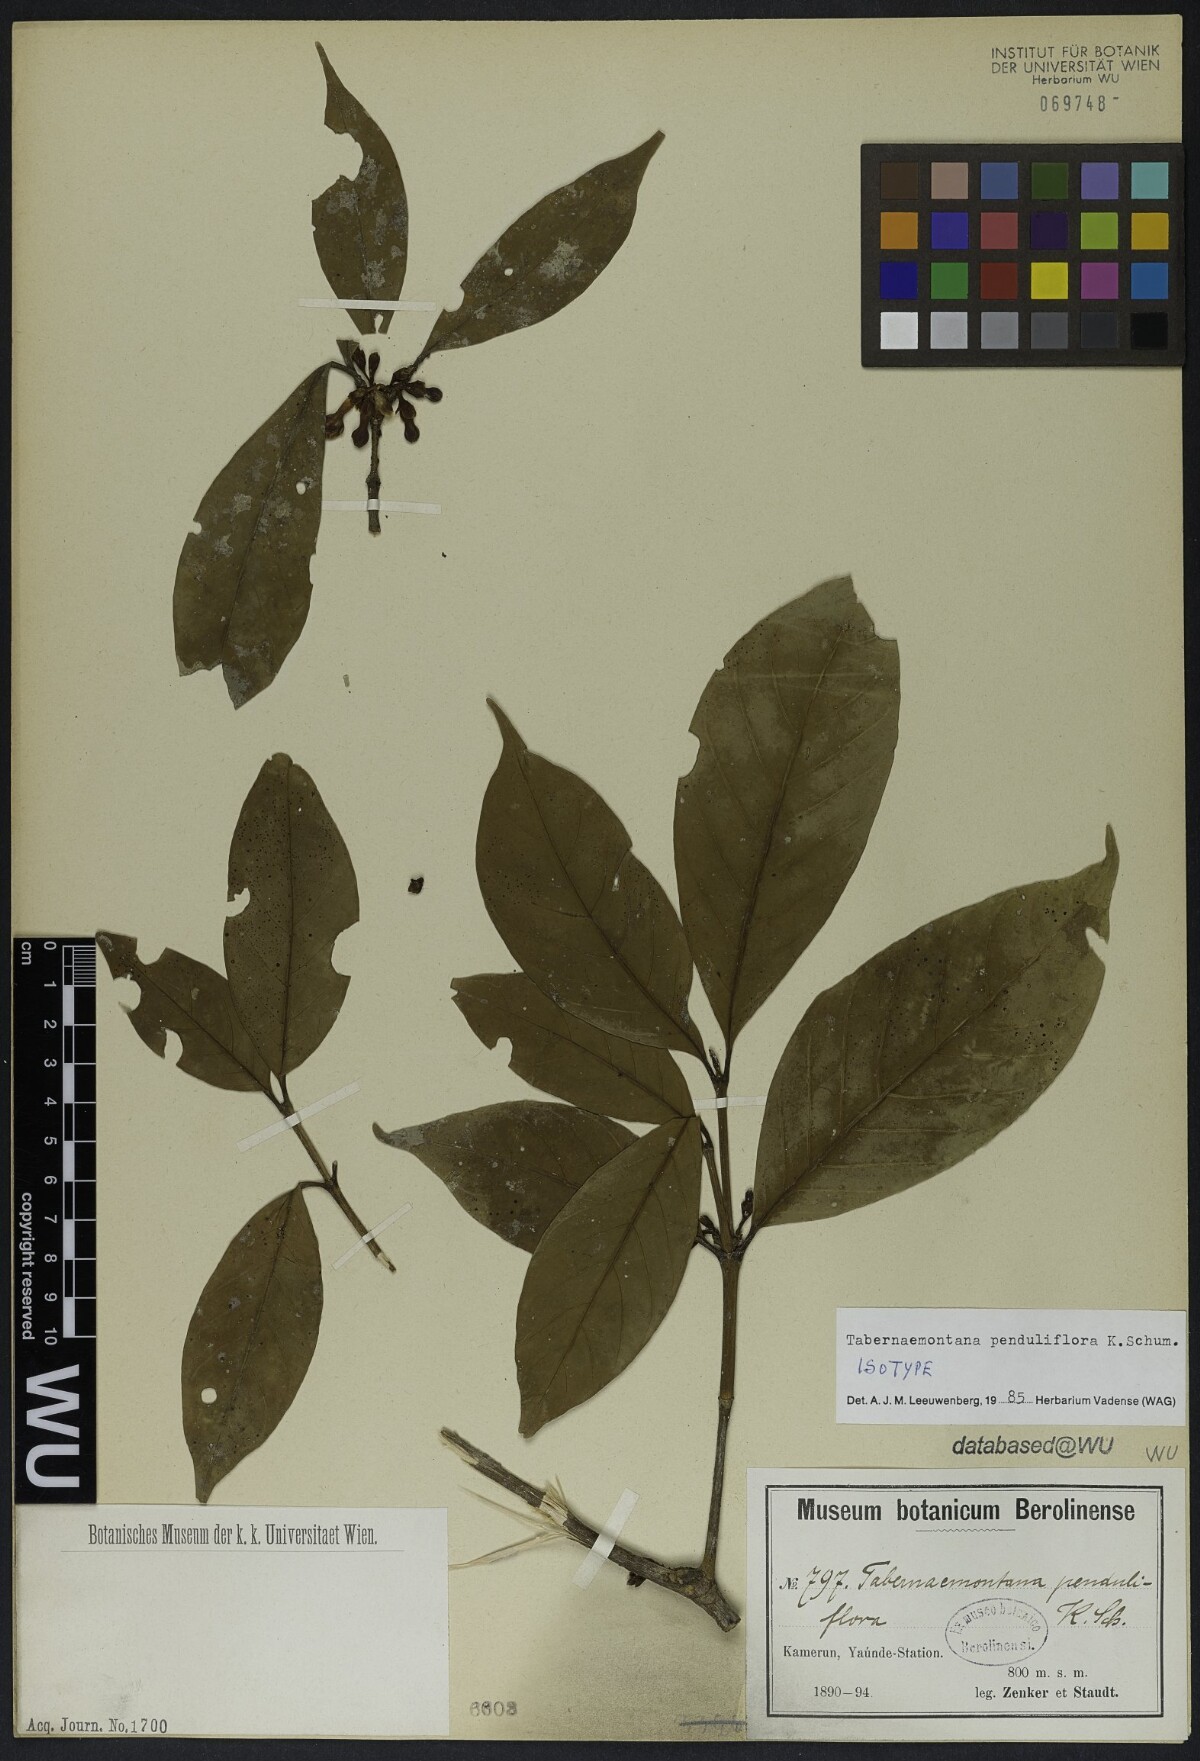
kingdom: Plantae
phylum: Tracheophyta
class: Magnoliopsida
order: Gentianales
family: Apocynaceae
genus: Tabernaemontana
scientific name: Tabernaemontana penduliflora
